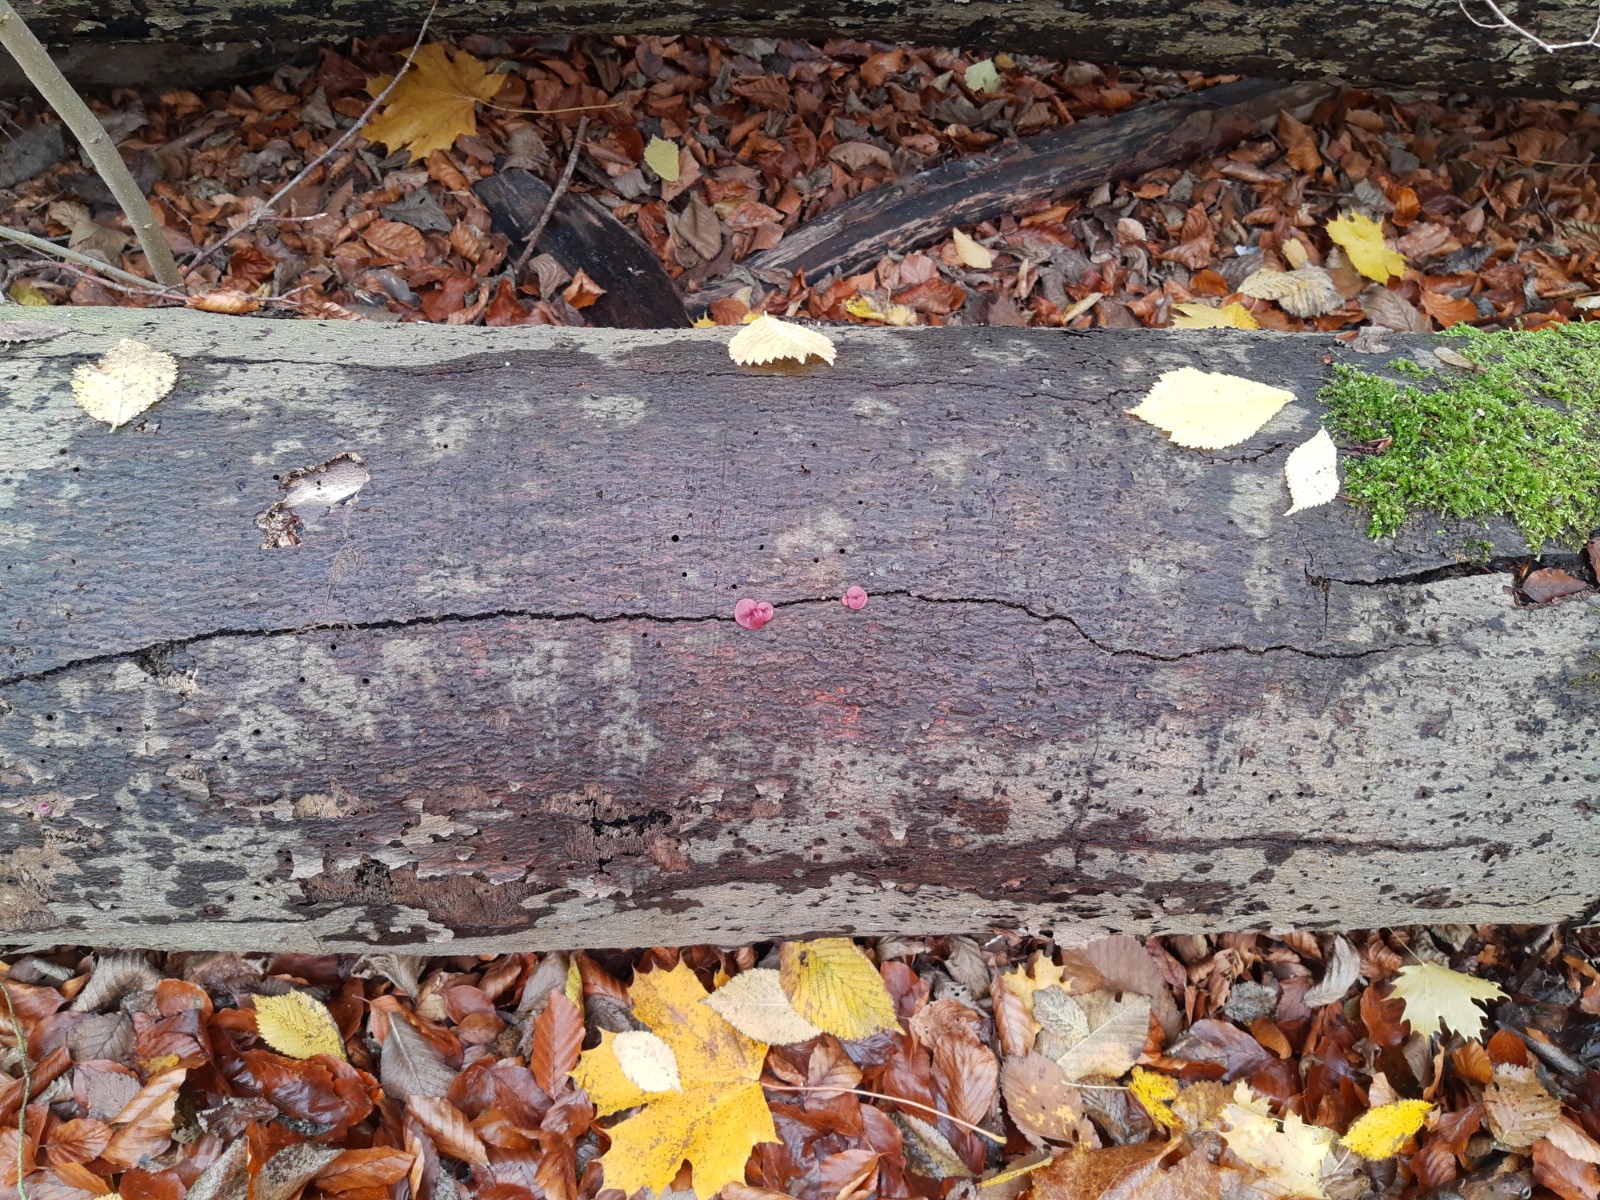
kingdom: Fungi
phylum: Ascomycota
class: Leotiomycetes
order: Helotiales
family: Gelatinodiscaceae
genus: Ascocoryne
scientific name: Ascocoryne cylichnium
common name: stor sejskive
